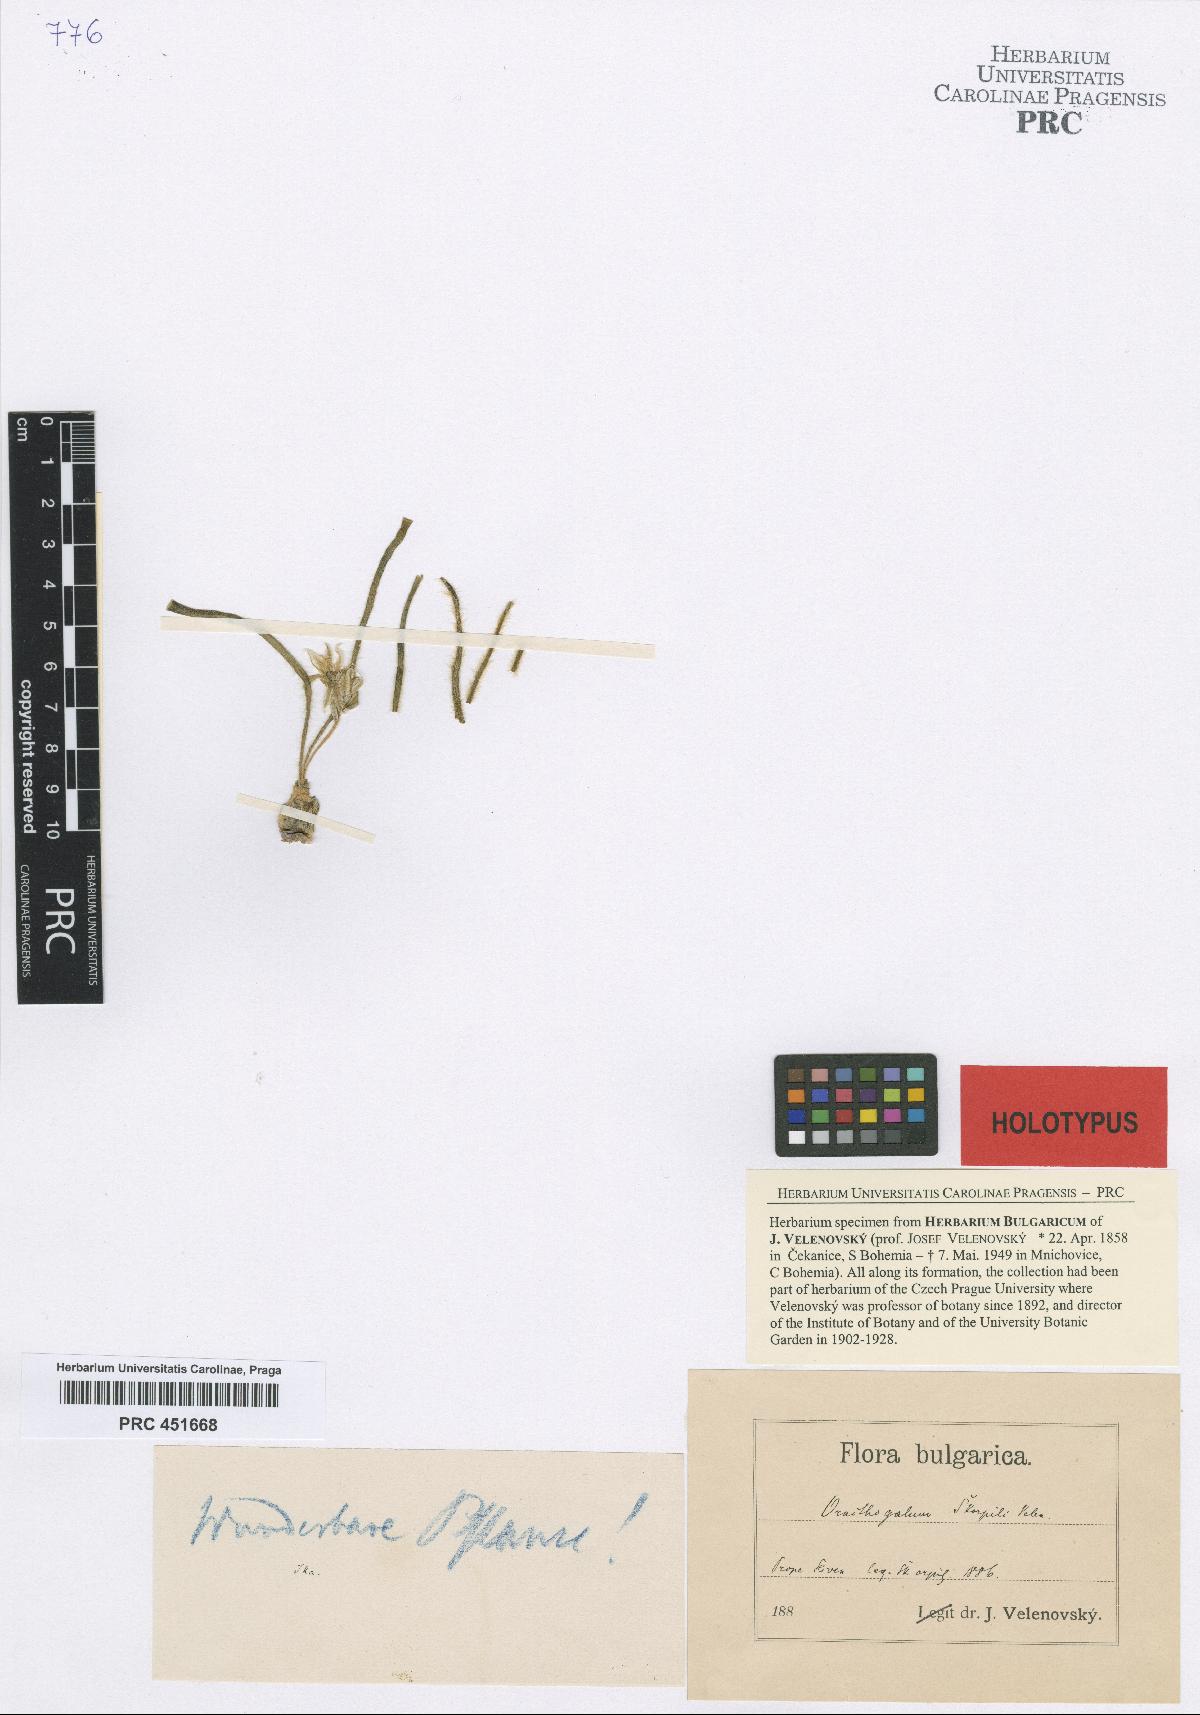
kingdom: Plantae
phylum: Tracheophyta
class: Liliopsida
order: Asparagales
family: Asparagaceae
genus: Ornithogalum
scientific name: Ornithogalum fimbriatum
